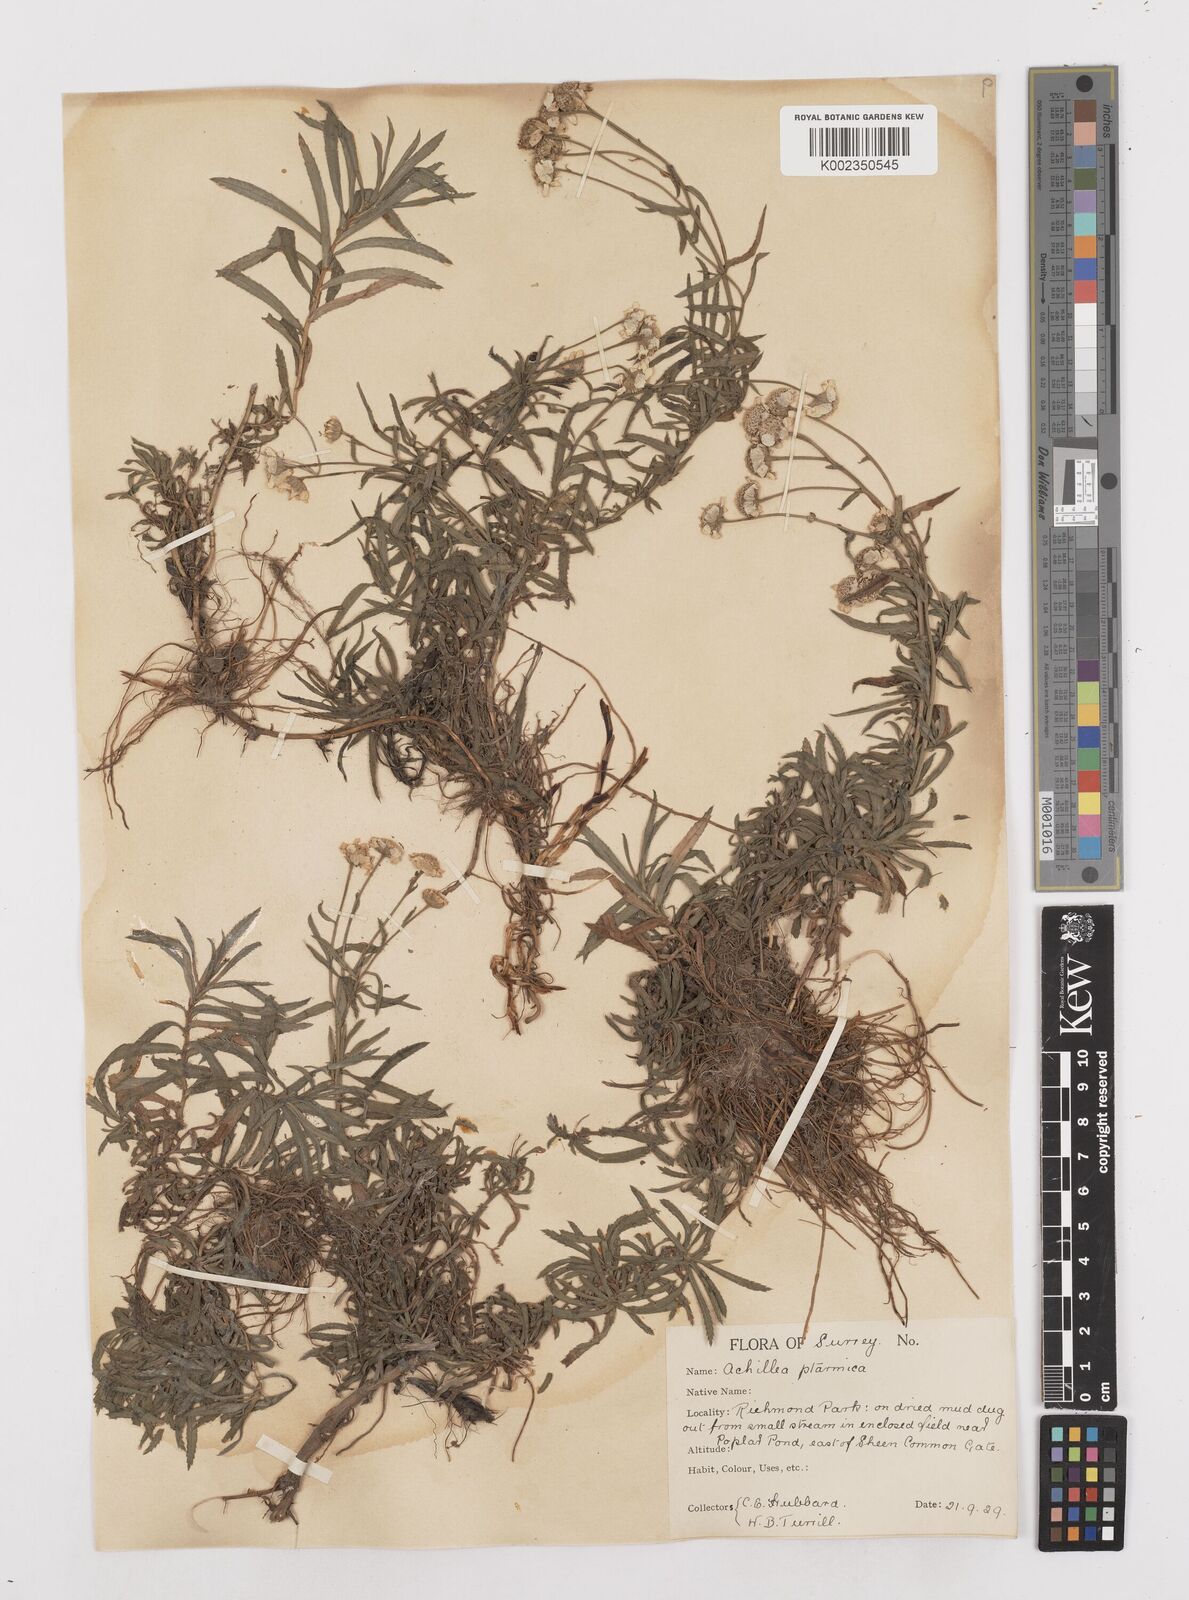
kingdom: Plantae
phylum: Tracheophyta
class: Magnoliopsida
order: Asterales
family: Asteraceae
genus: Achillea
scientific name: Achillea ptarmica
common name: Sneezeweed
